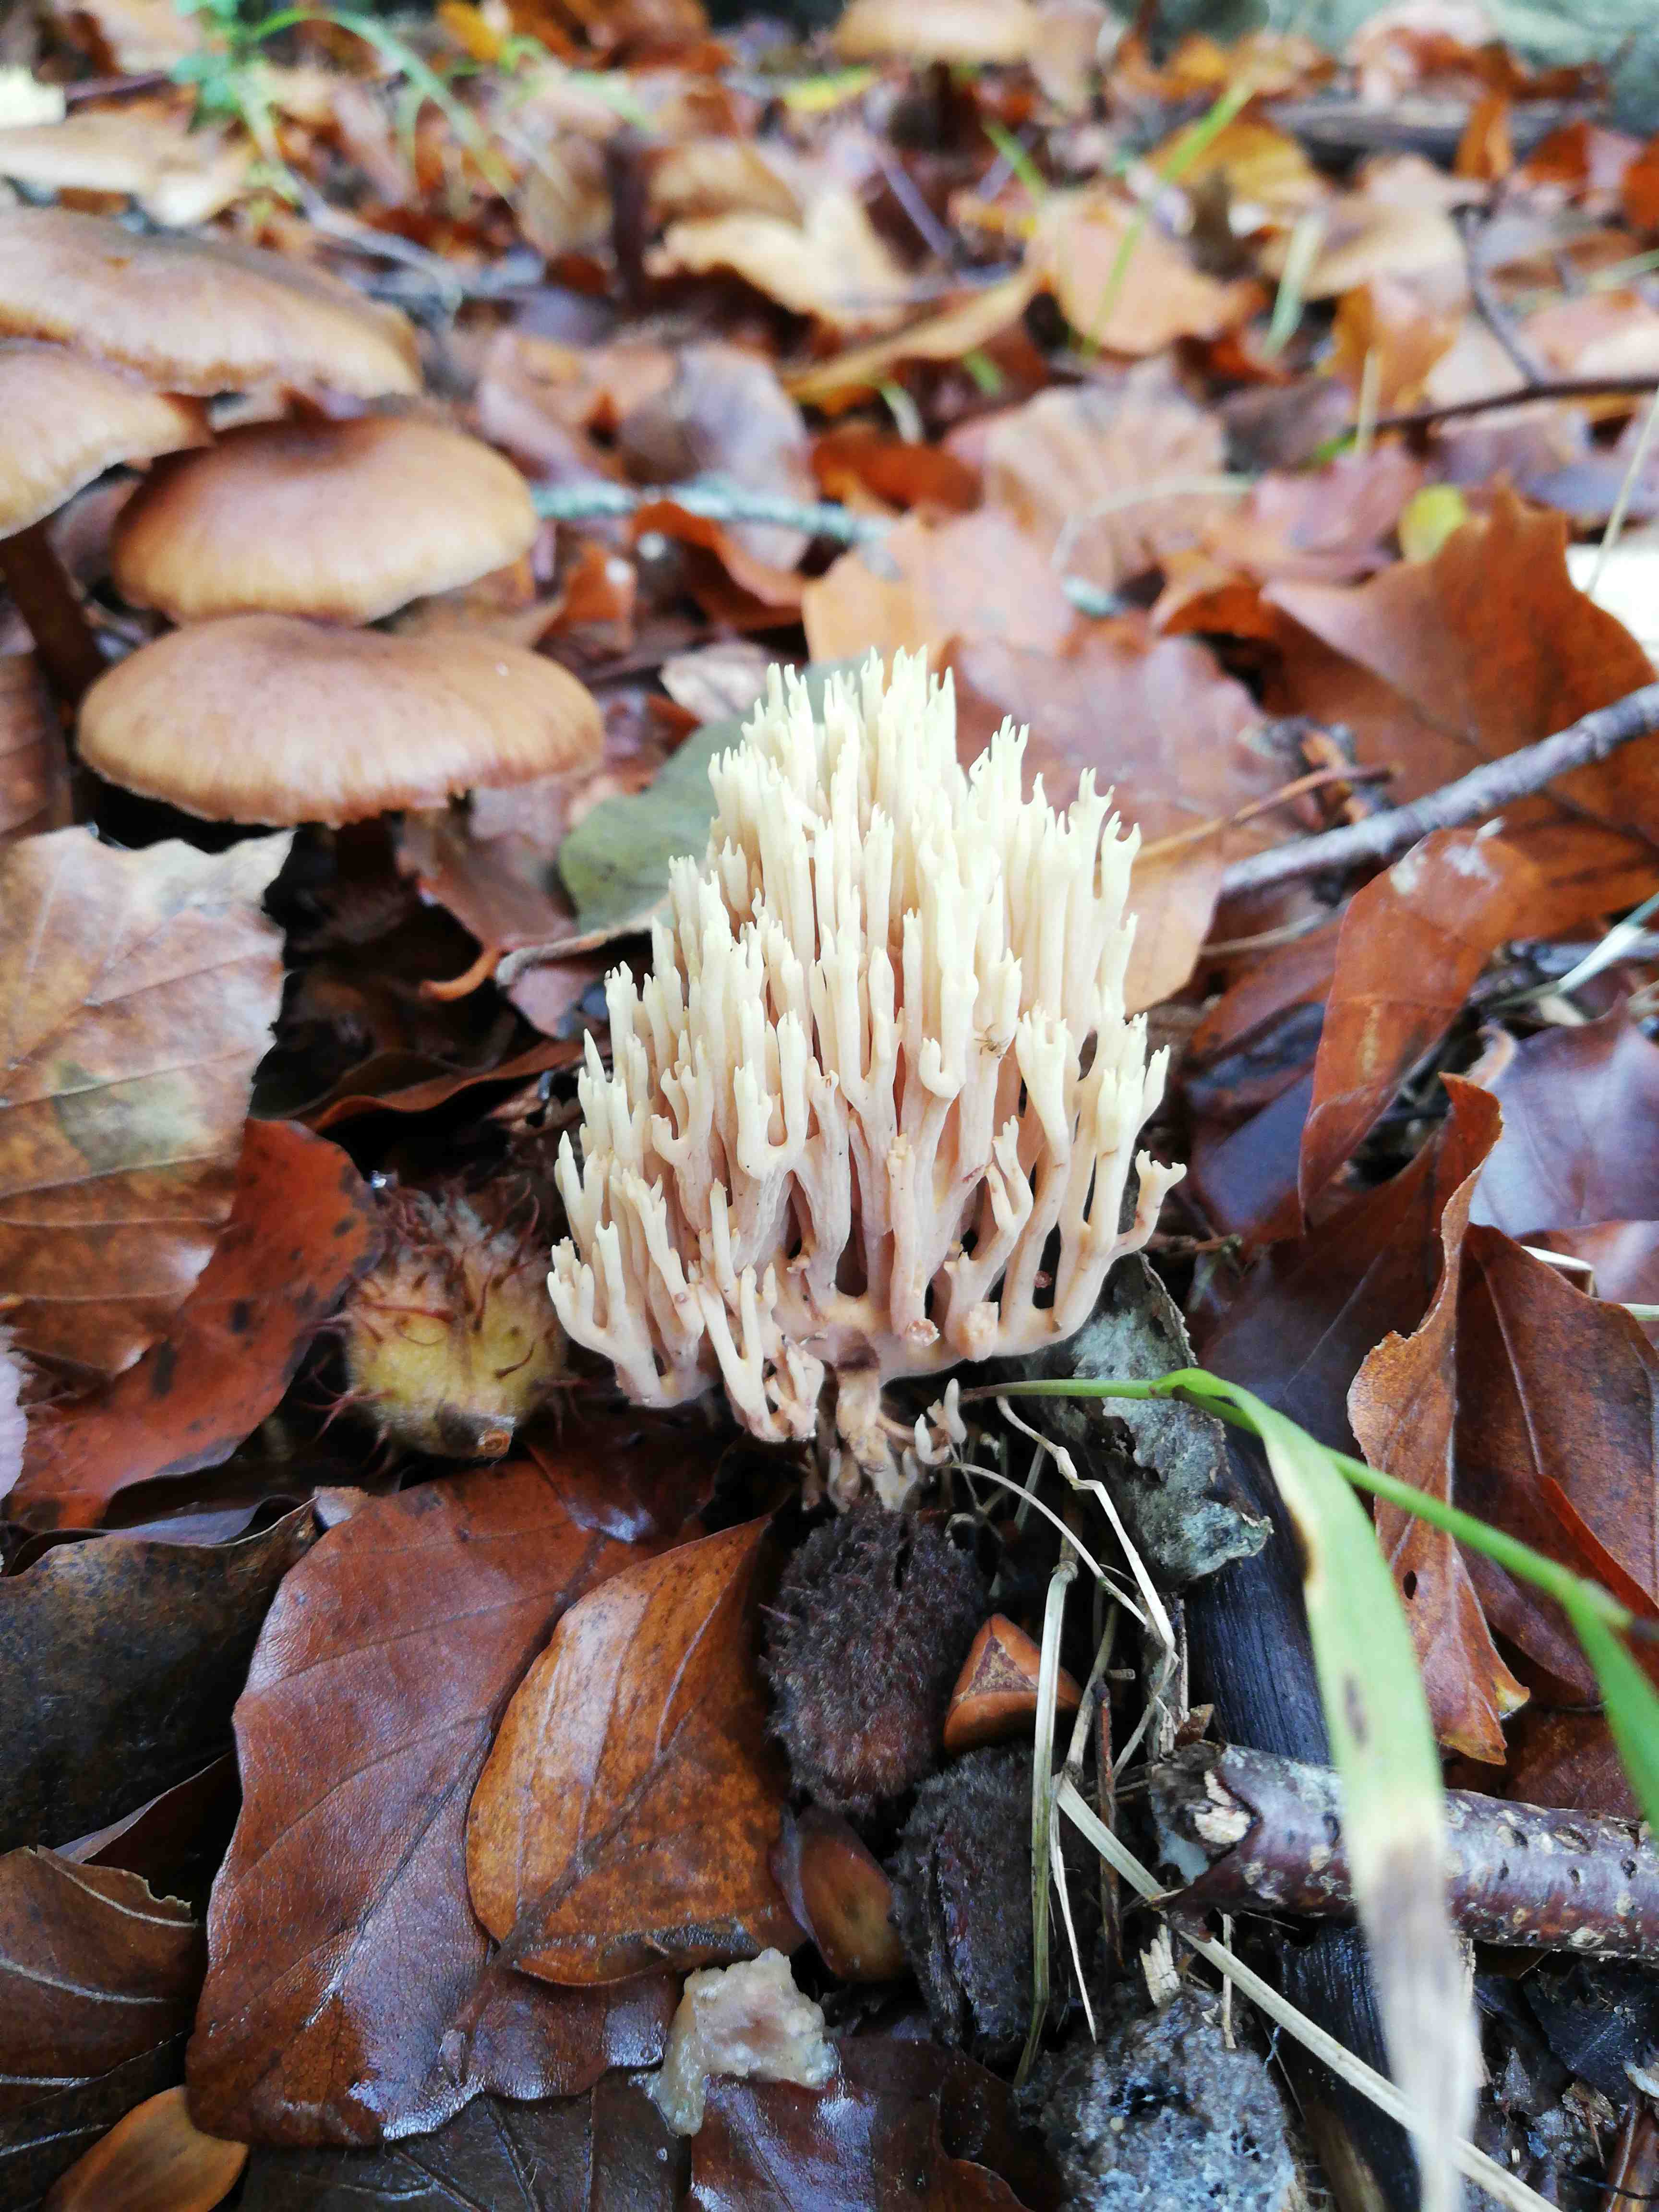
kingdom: Fungi
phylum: Basidiomycota
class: Agaricomycetes
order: Gomphales
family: Gomphaceae
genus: Ramaria
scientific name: Ramaria stricta
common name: rank koralsvamp
